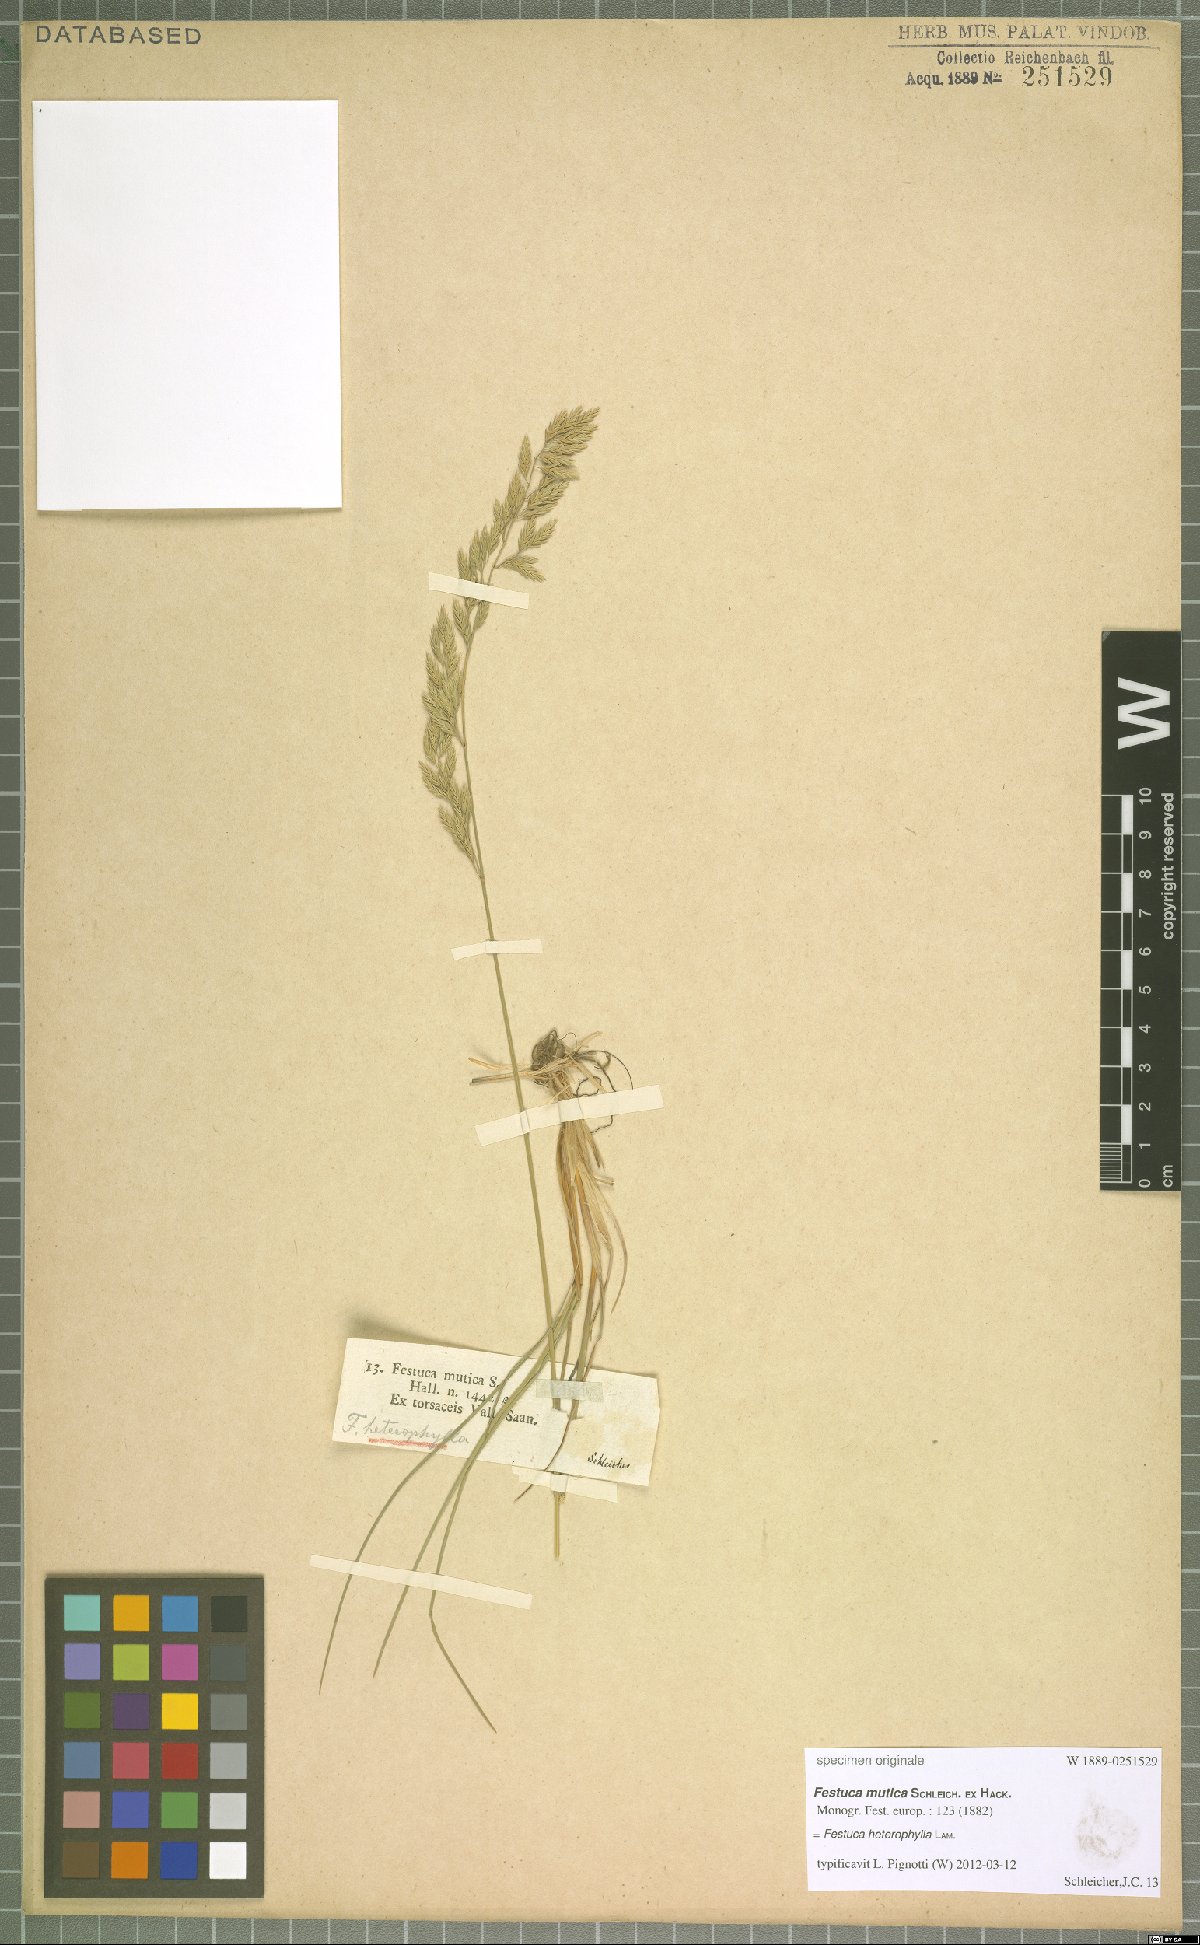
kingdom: Plantae
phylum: Tracheophyta
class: Liliopsida
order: Poales
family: Poaceae
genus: Festuca
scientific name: Festuca amethystina
